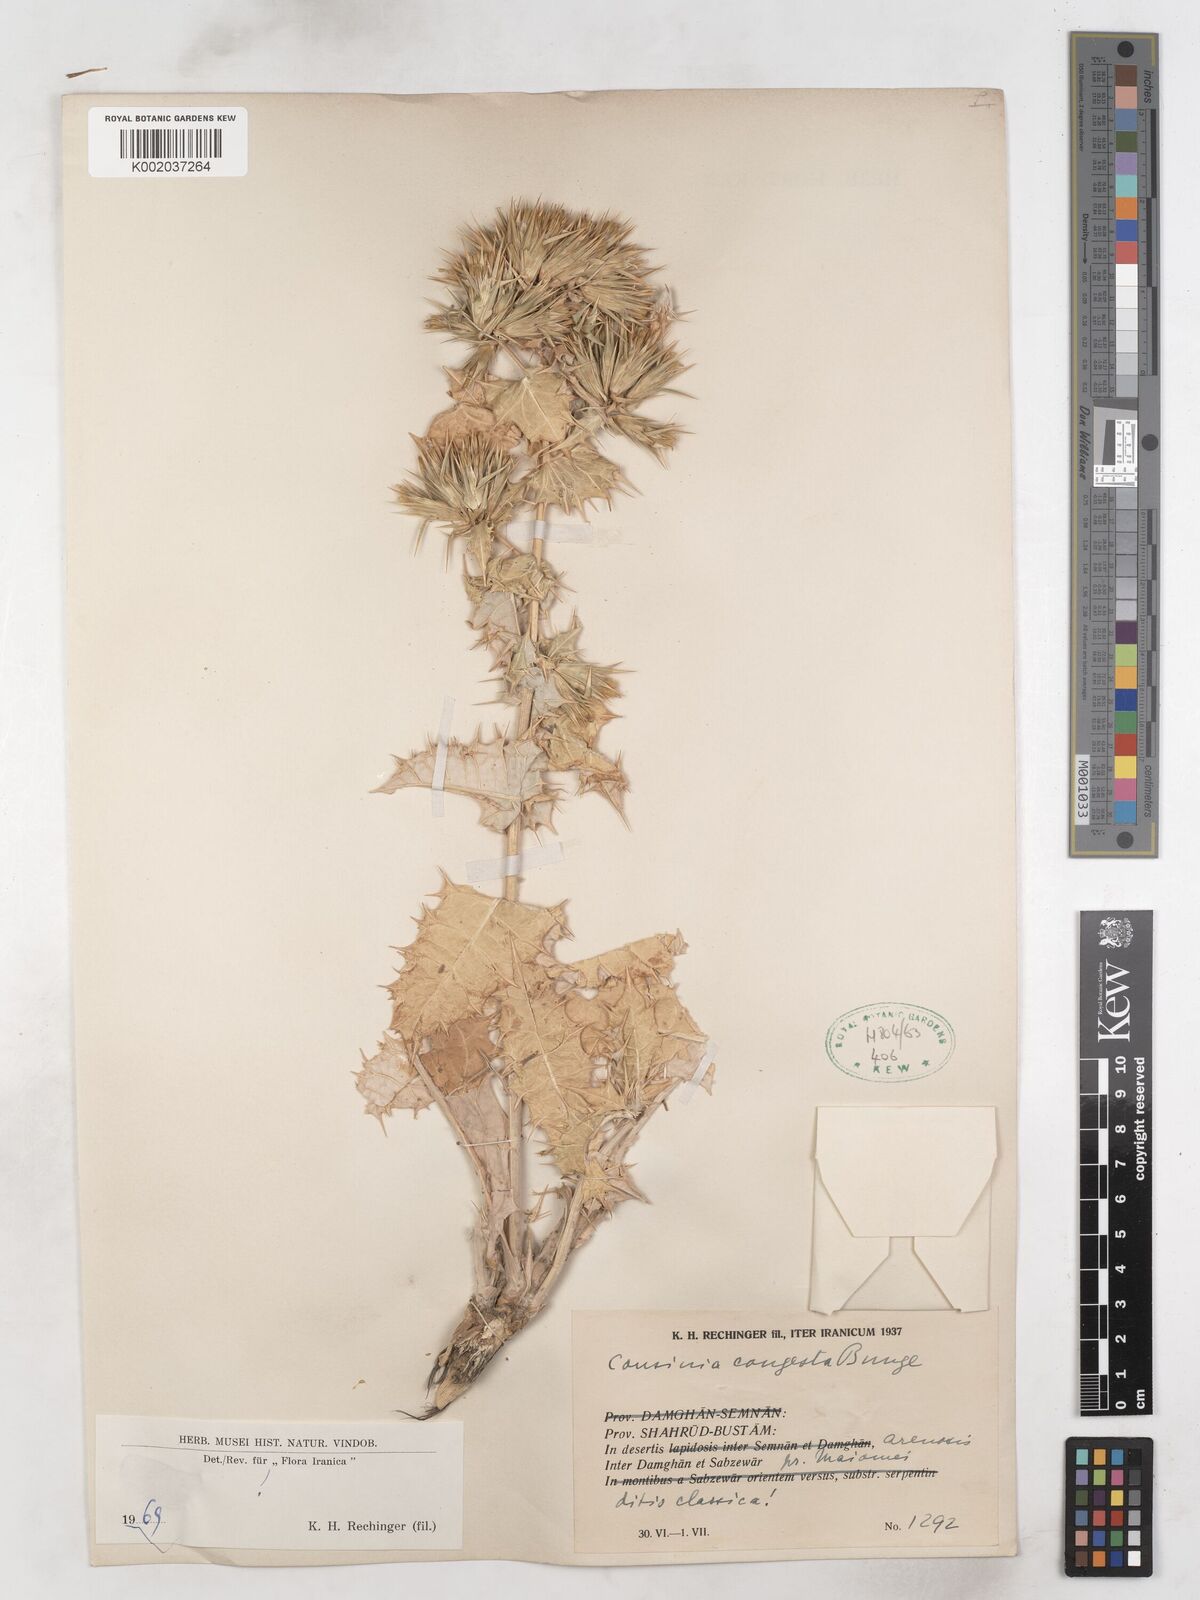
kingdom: Plantae
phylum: Tracheophyta
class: Magnoliopsida
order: Asterales
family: Asteraceae
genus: Cousinia
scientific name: Cousinia congesta
